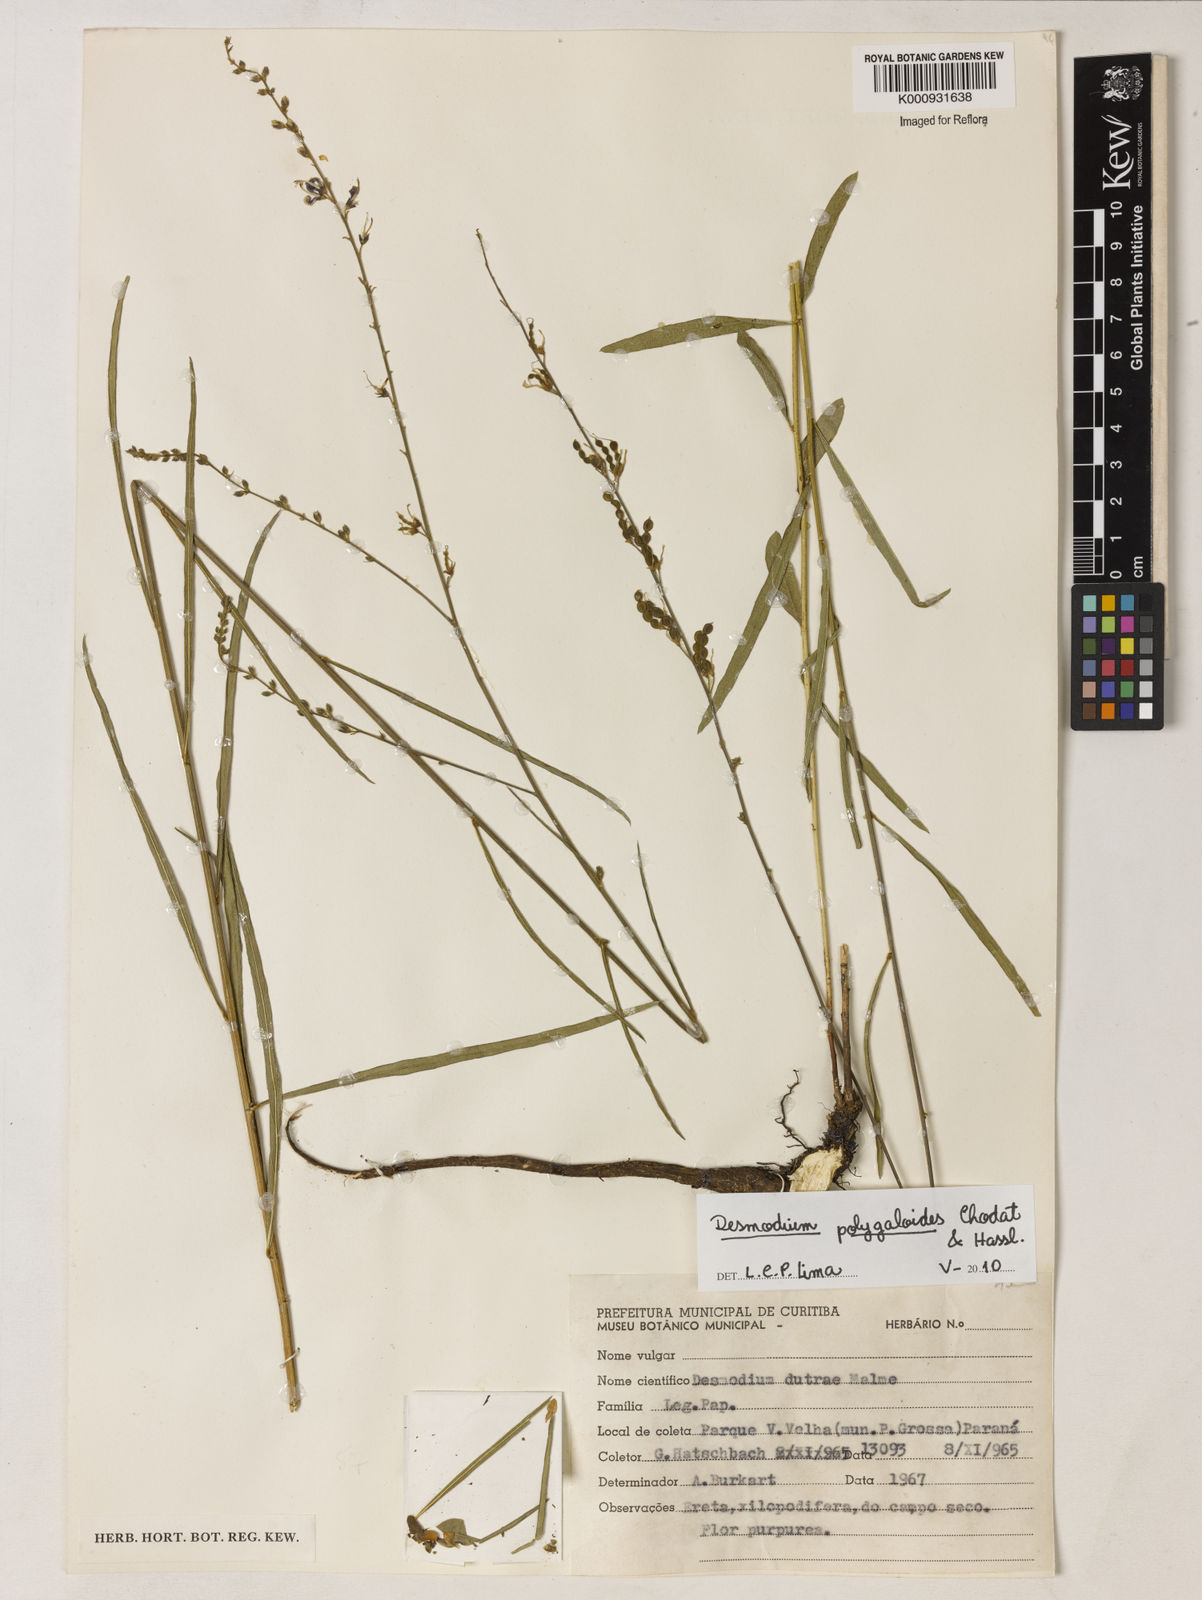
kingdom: Plantae
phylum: Tracheophyta
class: Magnoliopsida
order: Fabales
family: Fabaceae
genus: Desmodium
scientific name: Desmodium polygaloides
